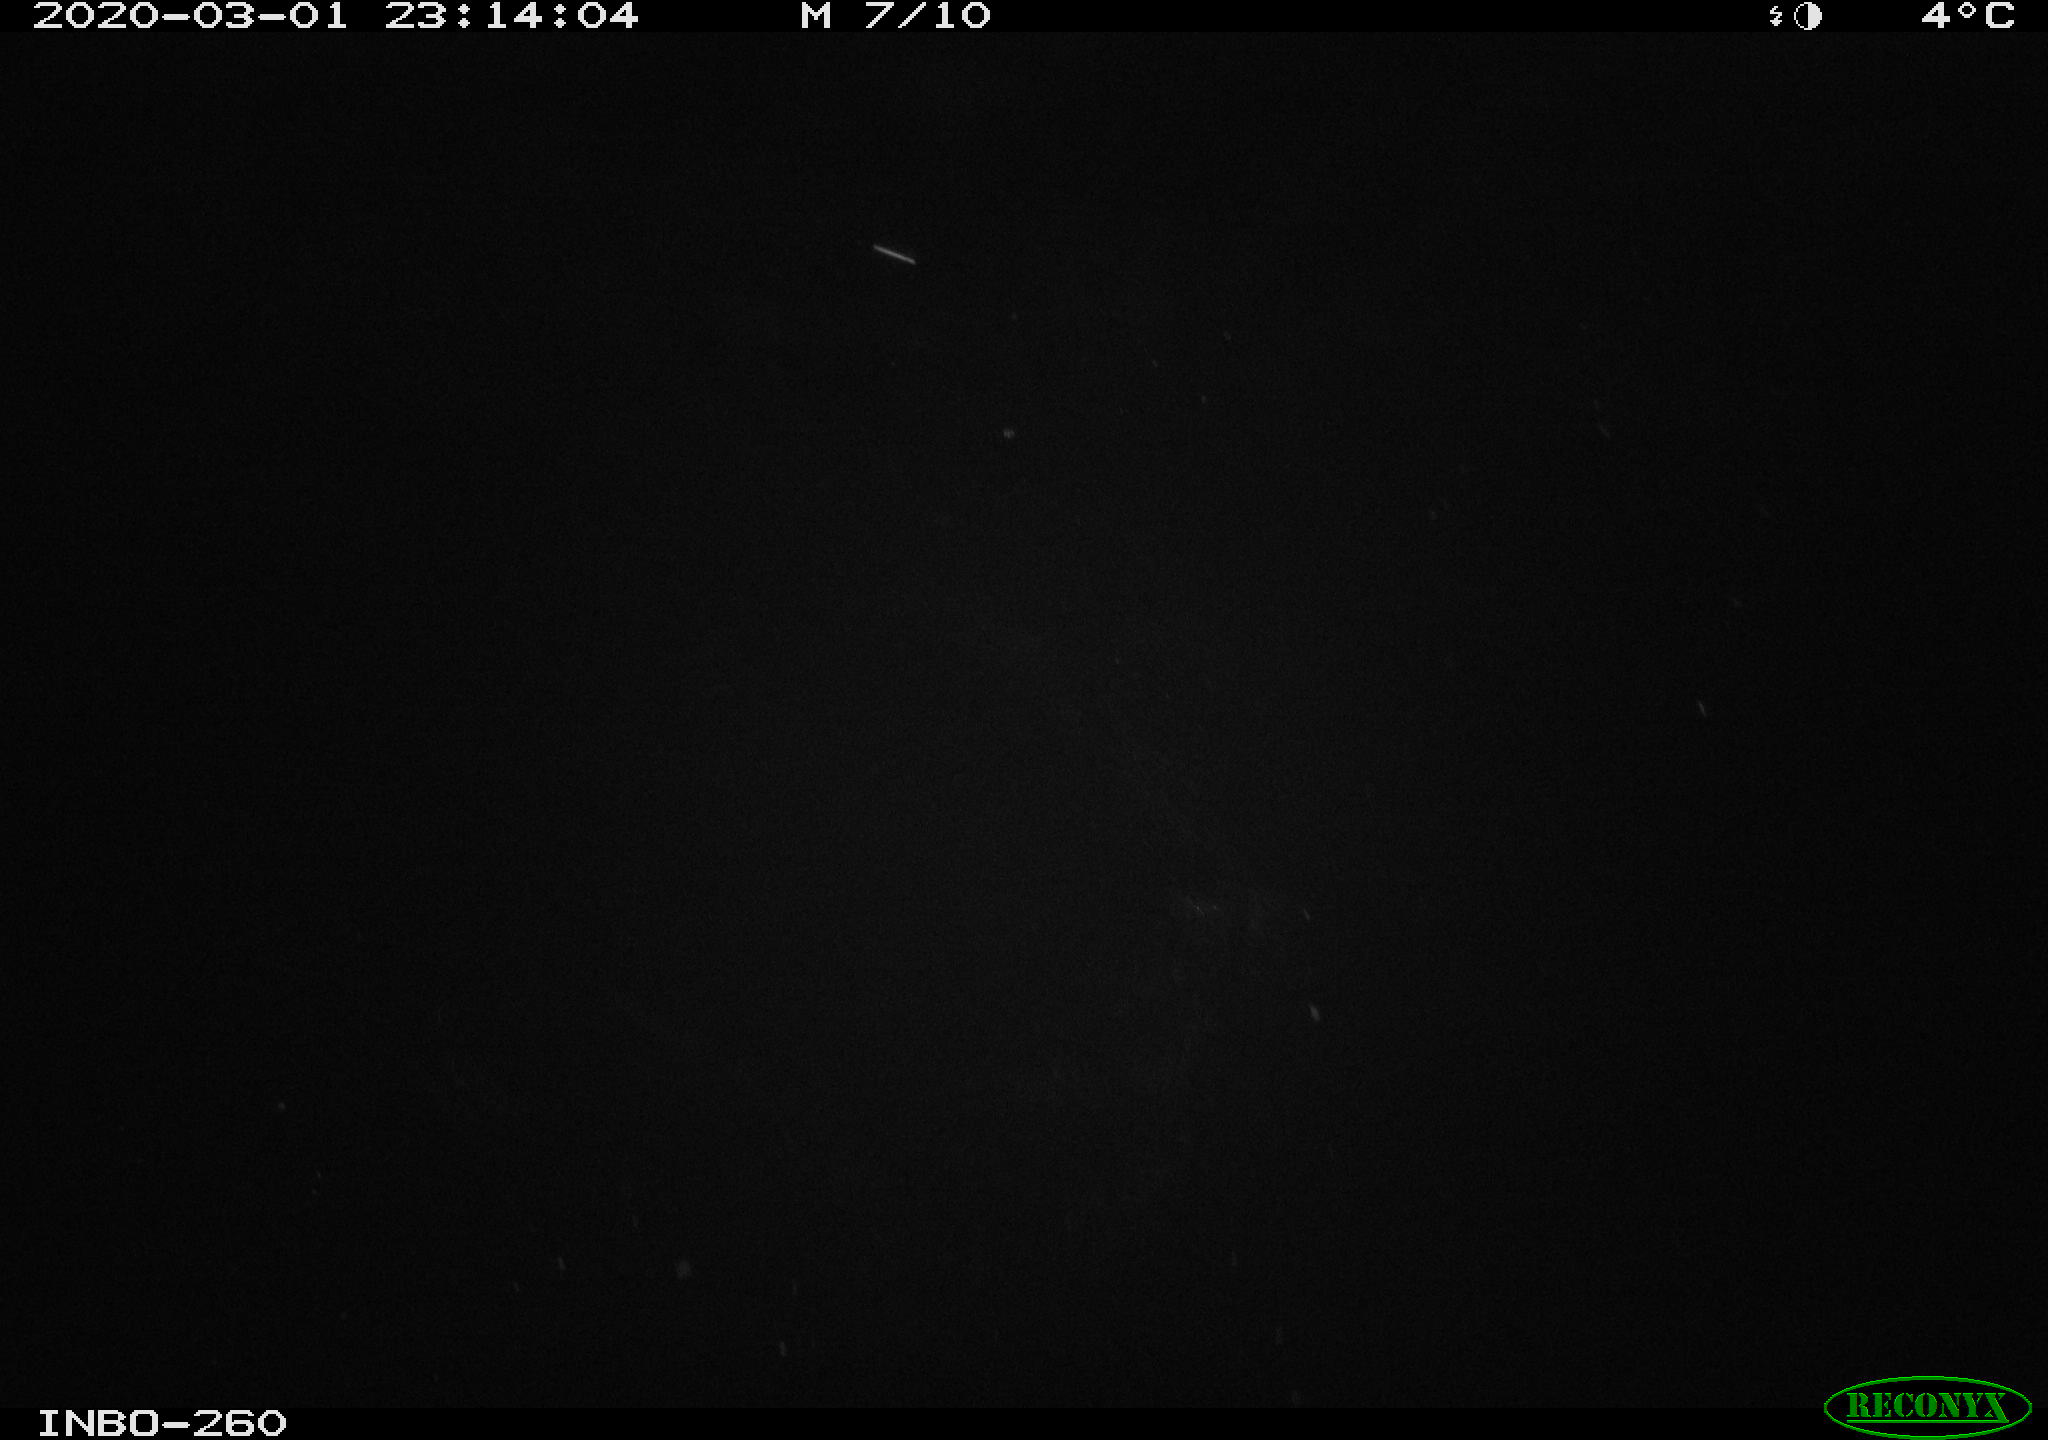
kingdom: Animalia
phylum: Chordata
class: Aves
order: Anseriformes
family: Anatidae
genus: Anas
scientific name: Anas platyrhynchos
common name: Mallard
